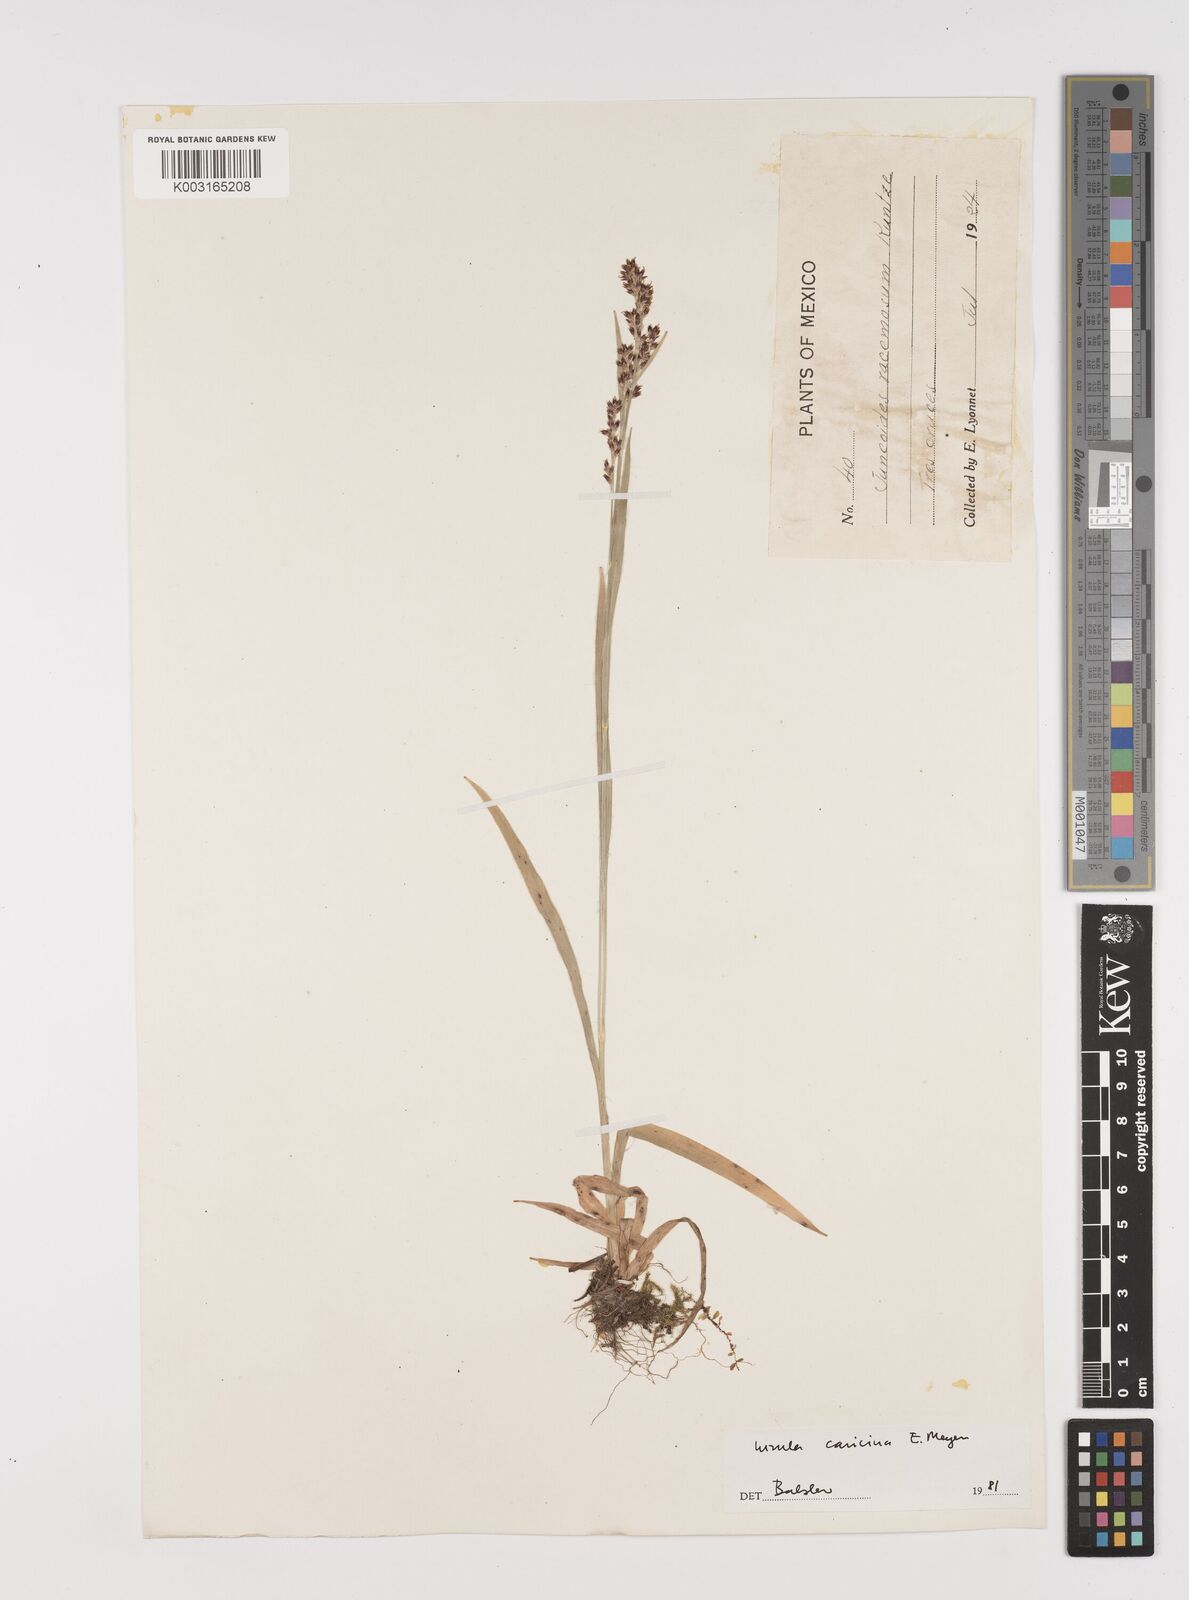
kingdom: Plantae
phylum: Tracheophyta
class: Liliopsida
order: Poales
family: Juncaceae
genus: Luzula
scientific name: Luzula caricina
